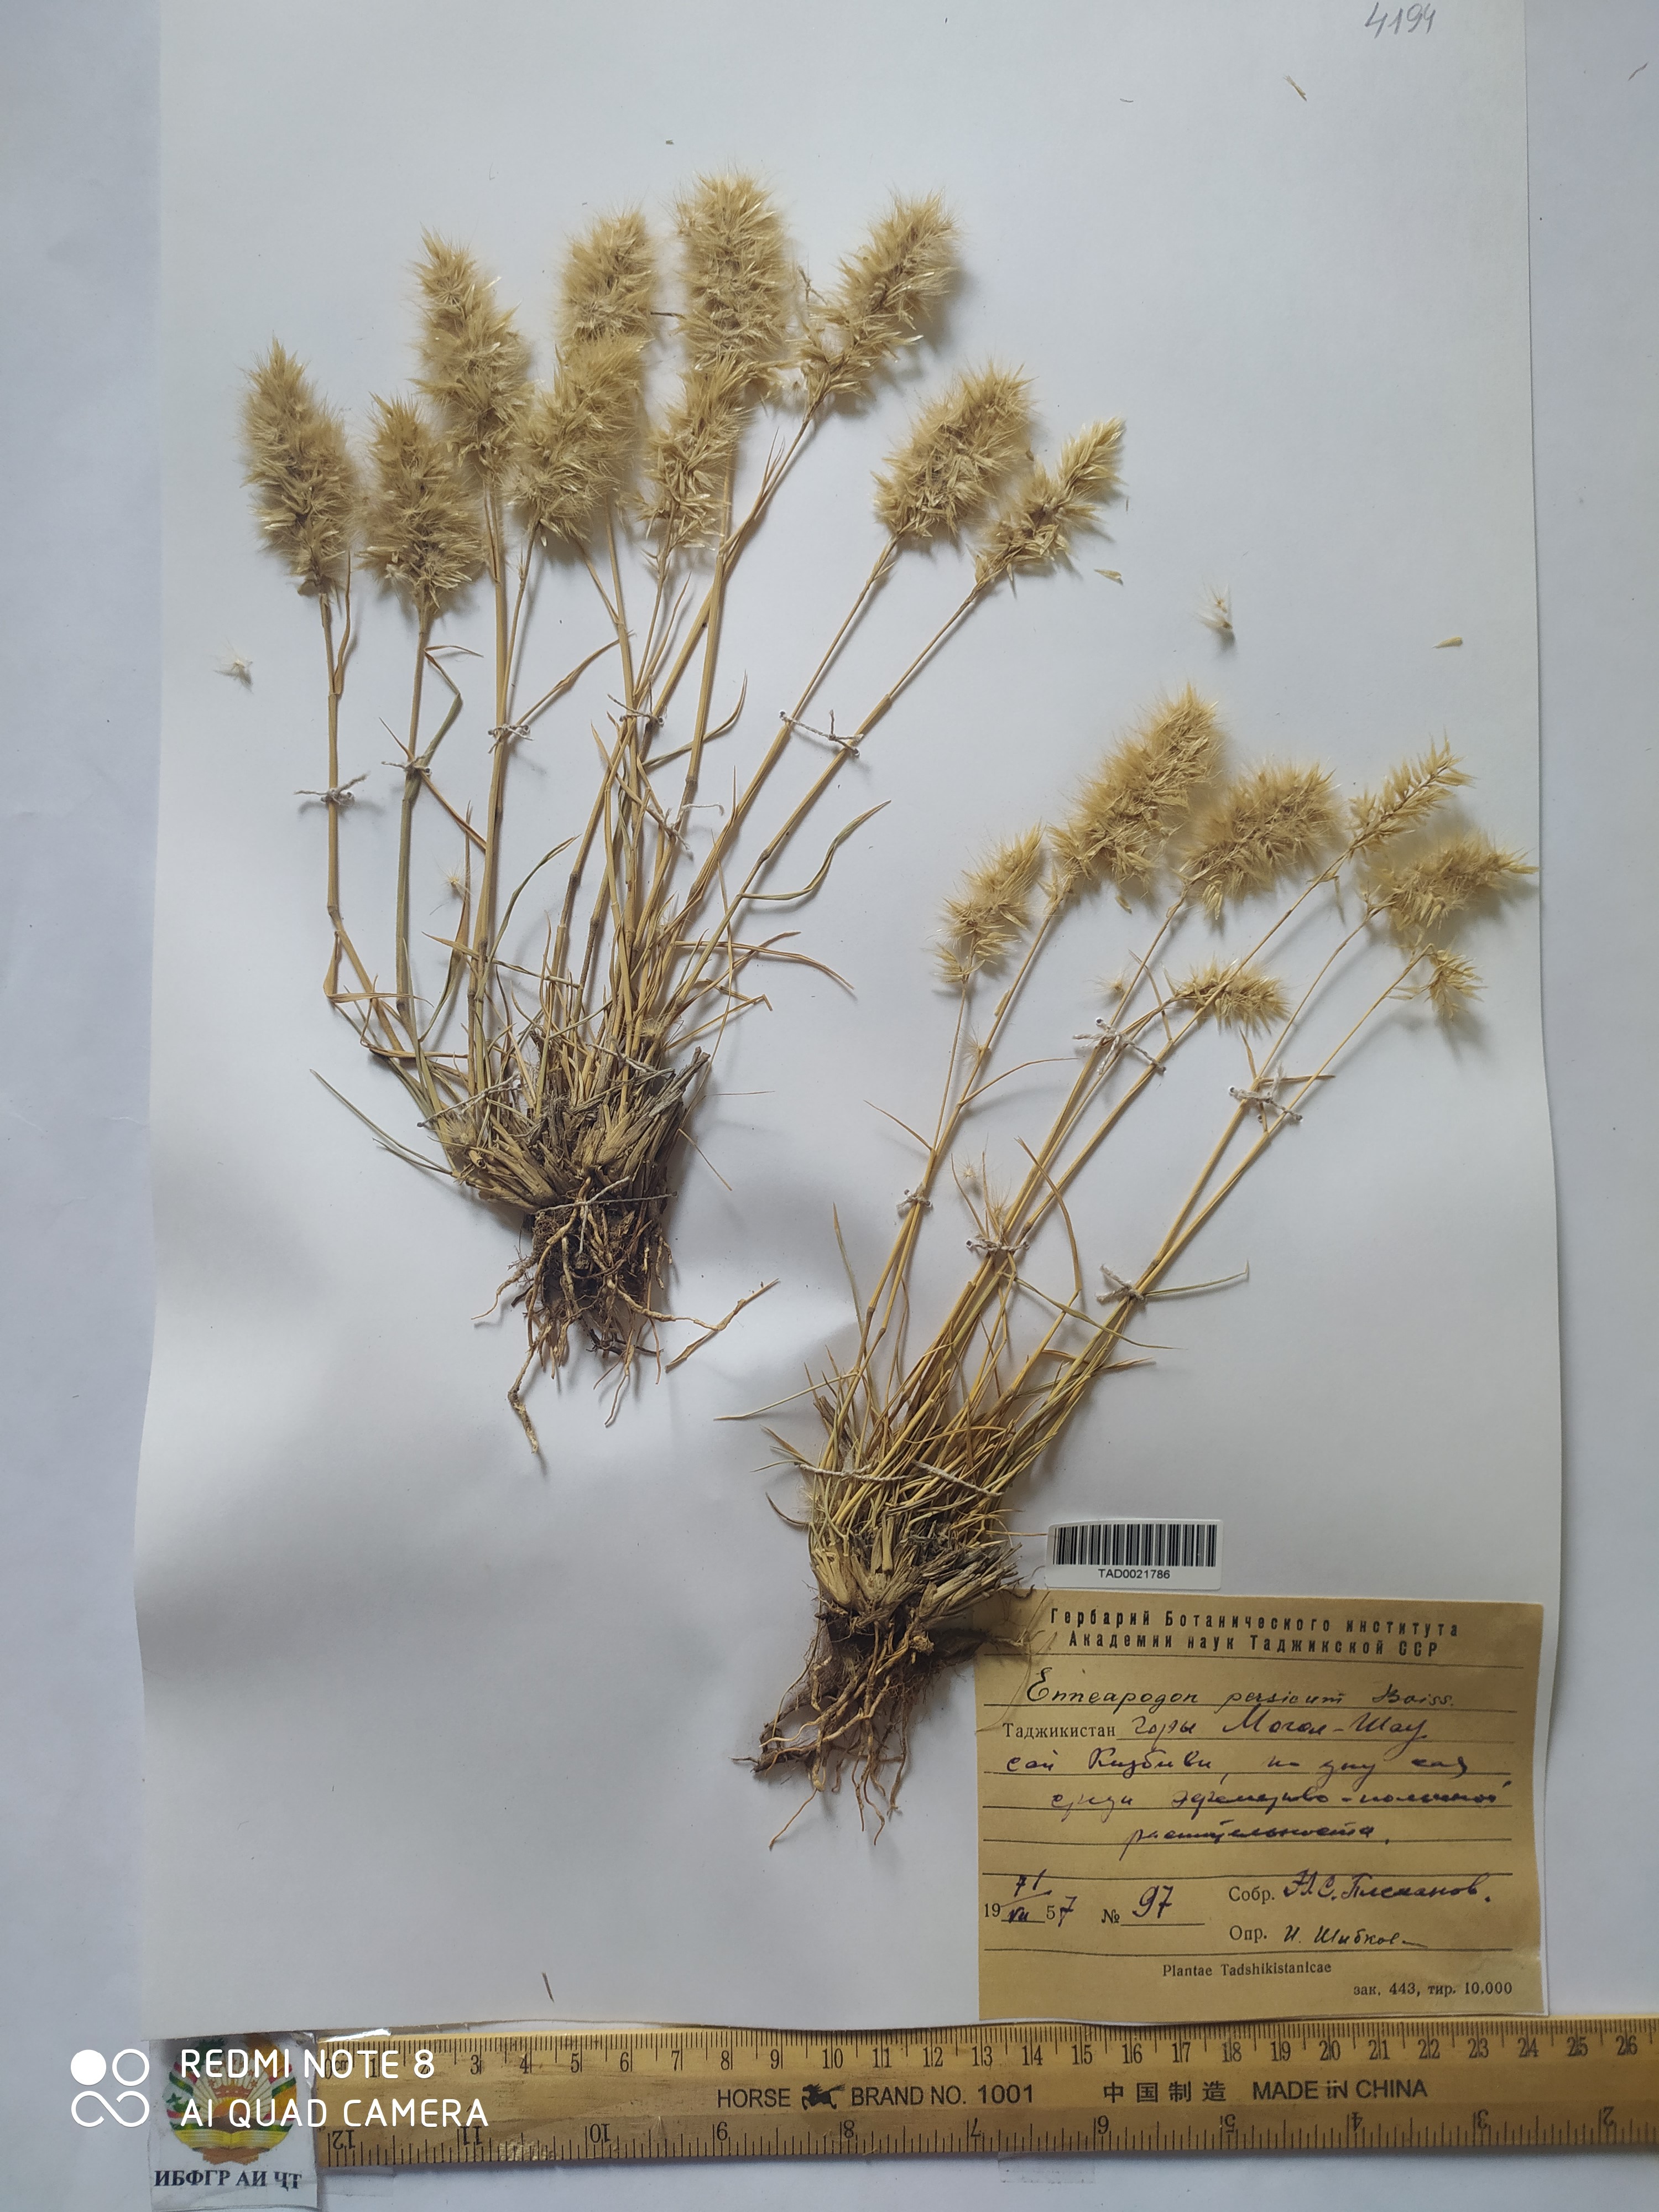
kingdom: Plantae
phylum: Tracheophyta
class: Liliopsida
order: Poales
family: Poaceae
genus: Enneapogon
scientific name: Enneapogon persicus
